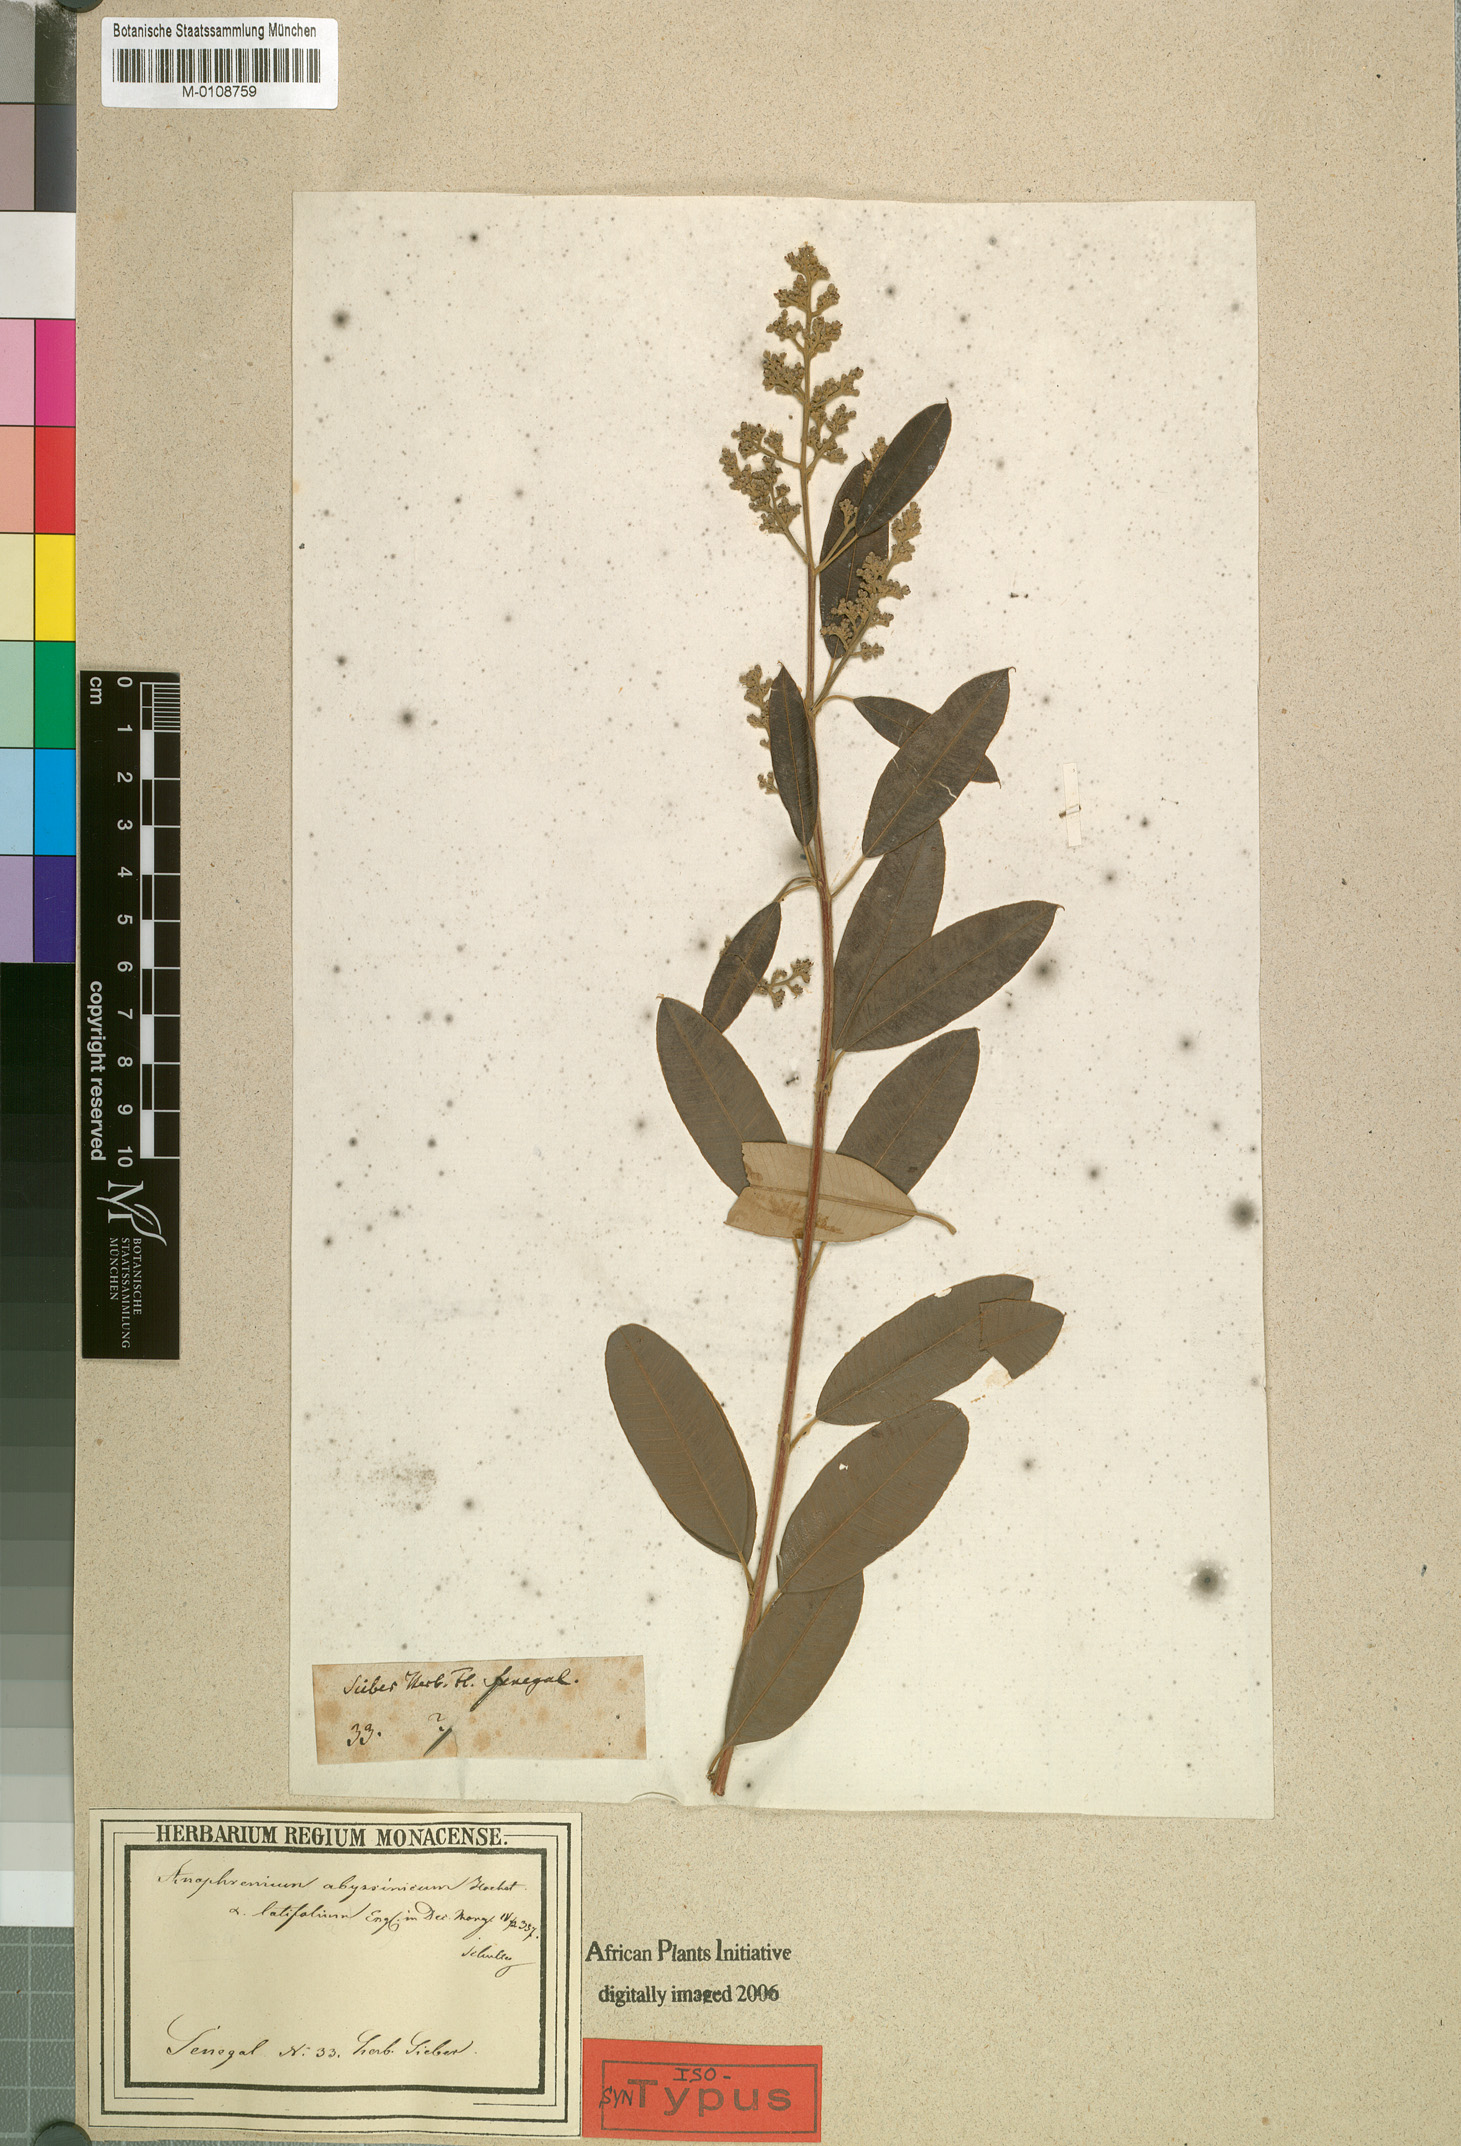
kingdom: Plantae
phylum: Tracheophyta
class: Magnoliopsida
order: Sapindales
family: Anacardiaceae
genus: Ozoroa
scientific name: Ozoroa insignis
